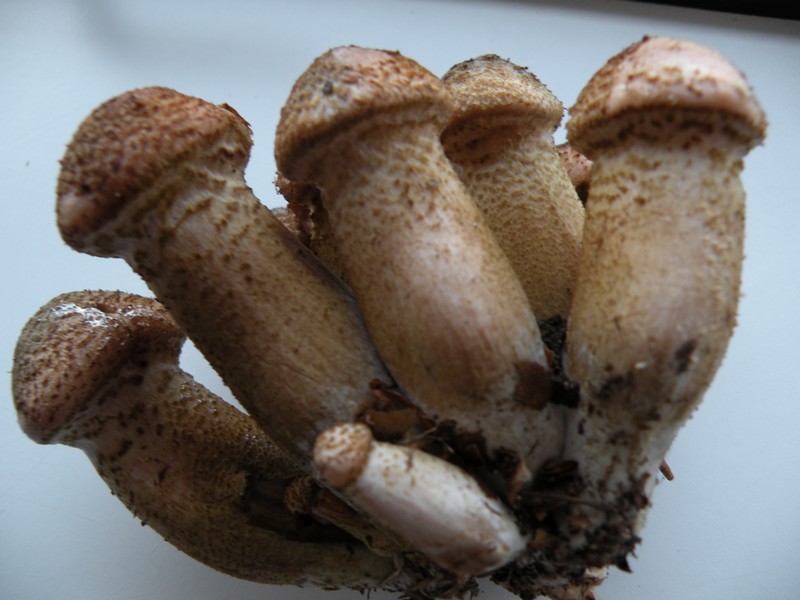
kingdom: Fungi
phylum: Basidiomycota
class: Agaricomycetes
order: Agaricales
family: Physalacriaceae
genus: Armillaria
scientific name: Armillaria ostoyae
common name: mørk honningsvamp
